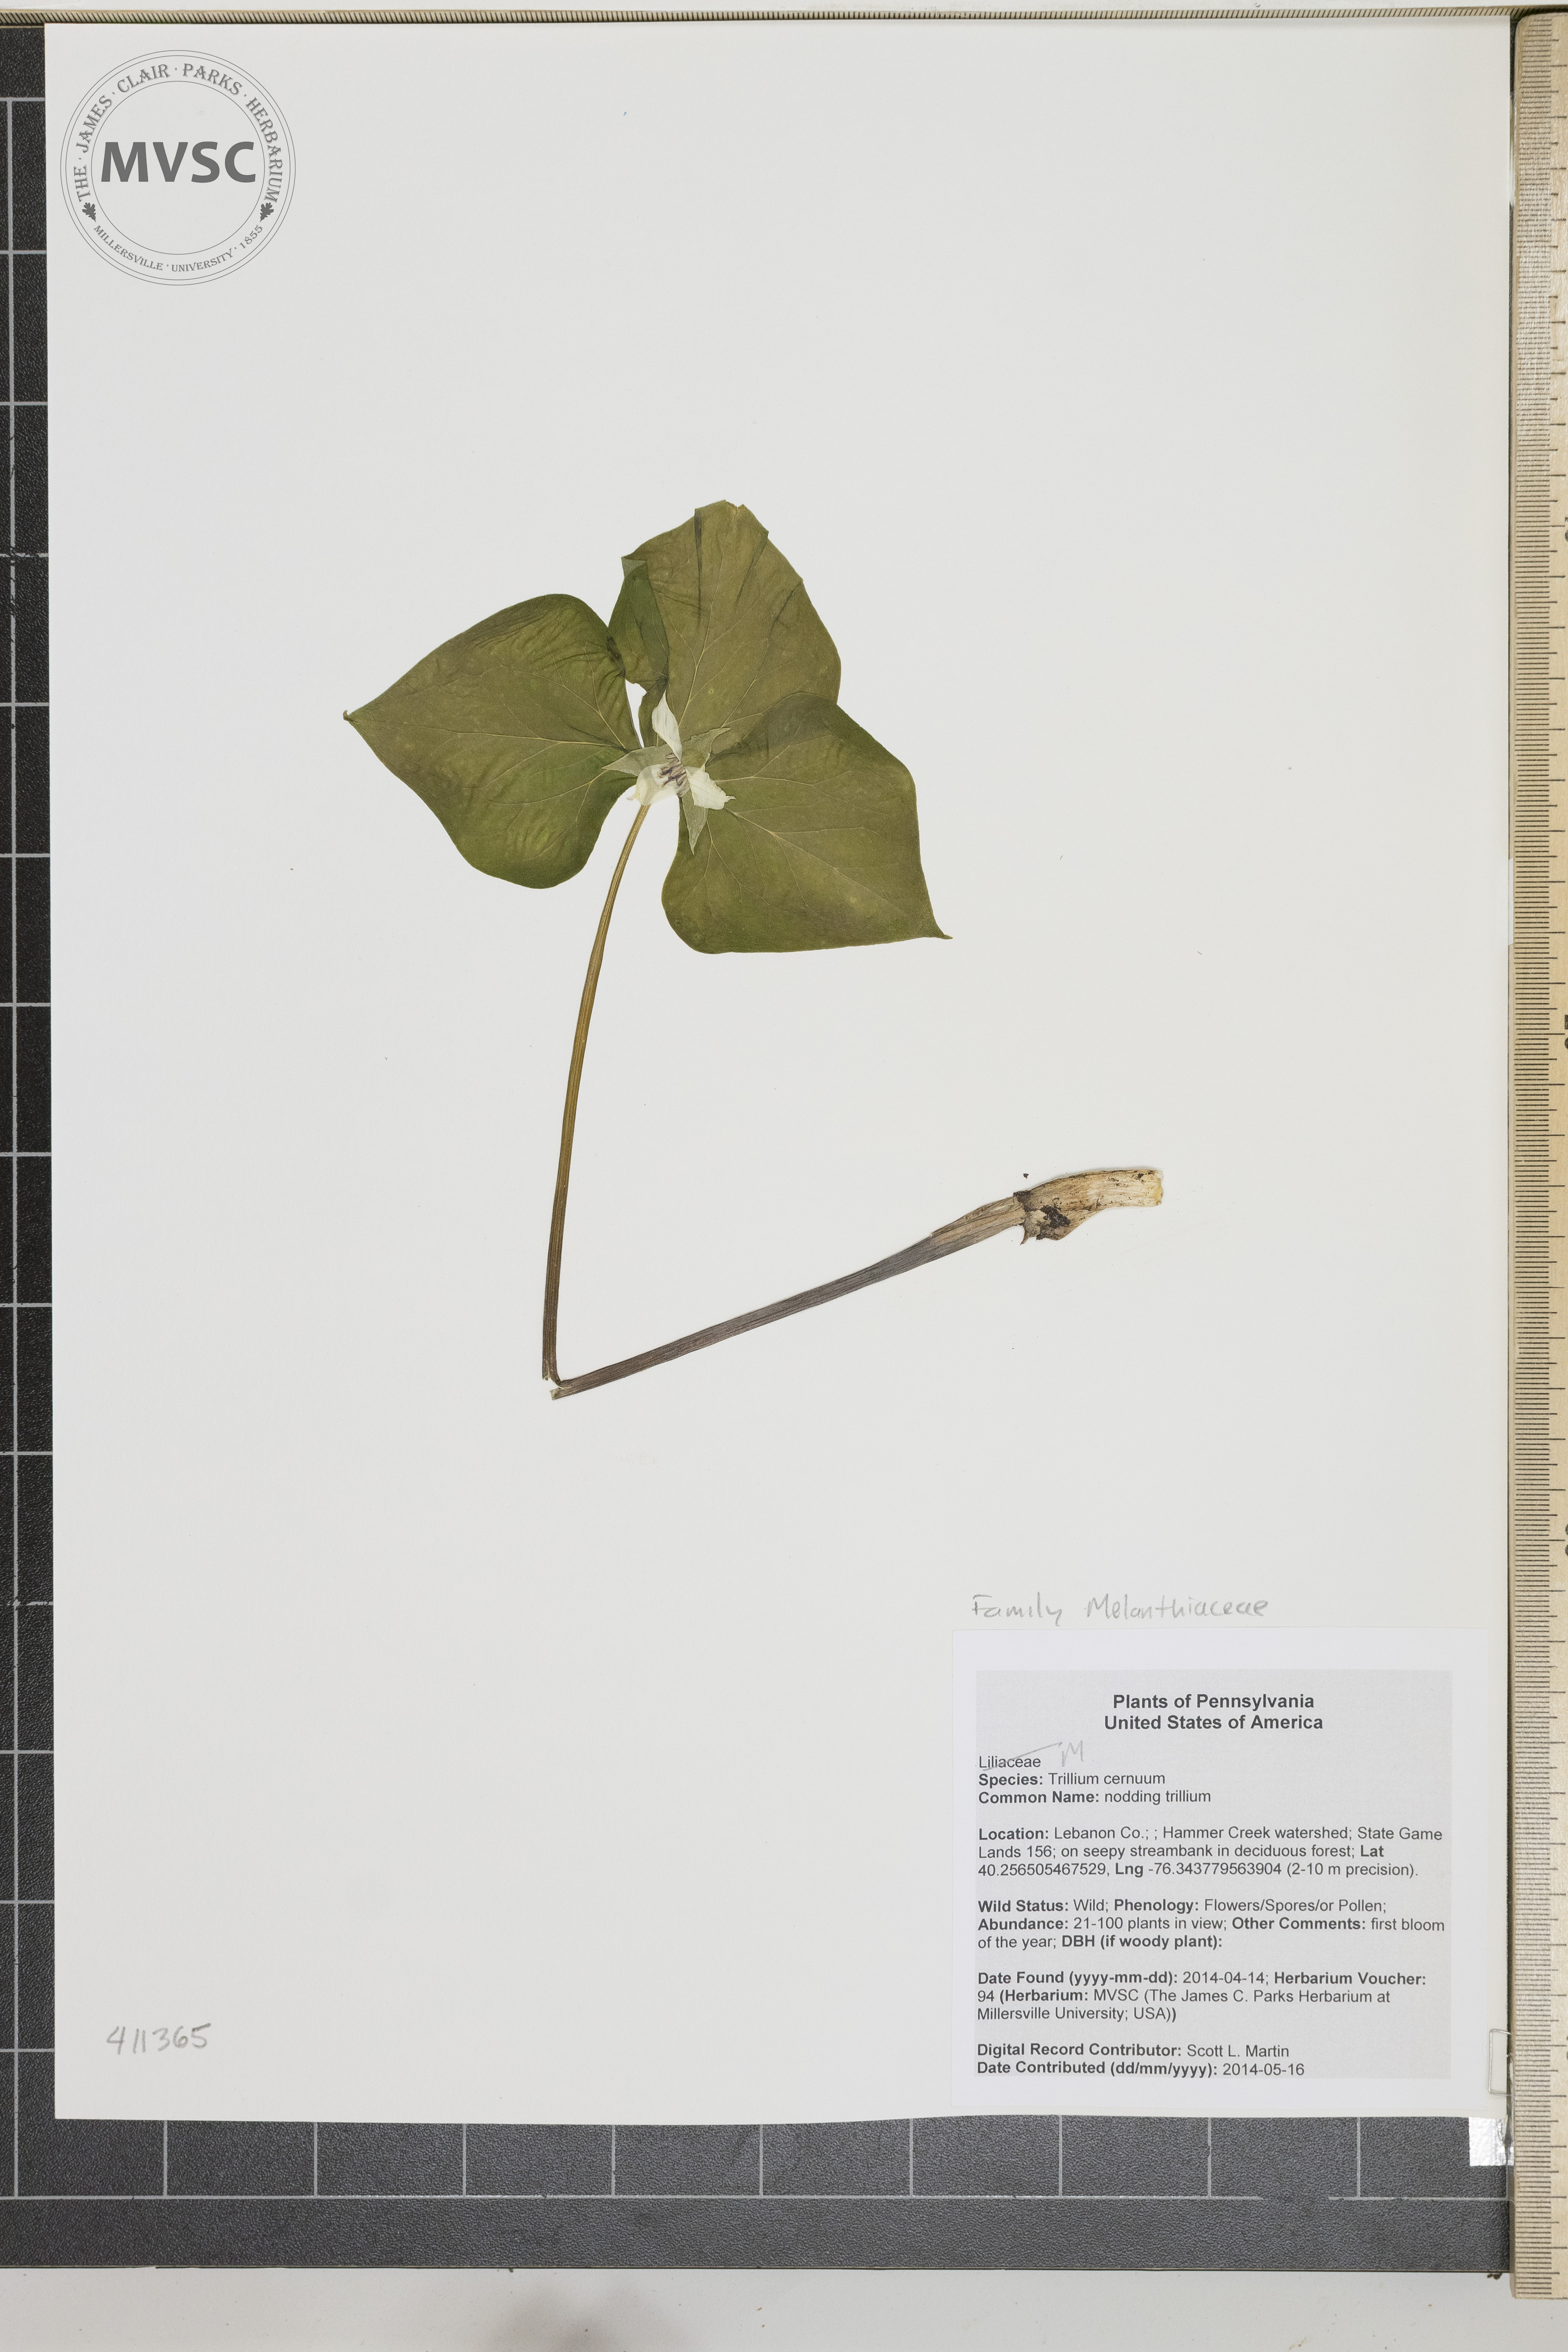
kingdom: Plantae
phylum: Tracheophyta
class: Liliopsida
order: Liliales
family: Melanthiaceae
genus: Trillium
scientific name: Trillium cernuum
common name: nodding trillium
